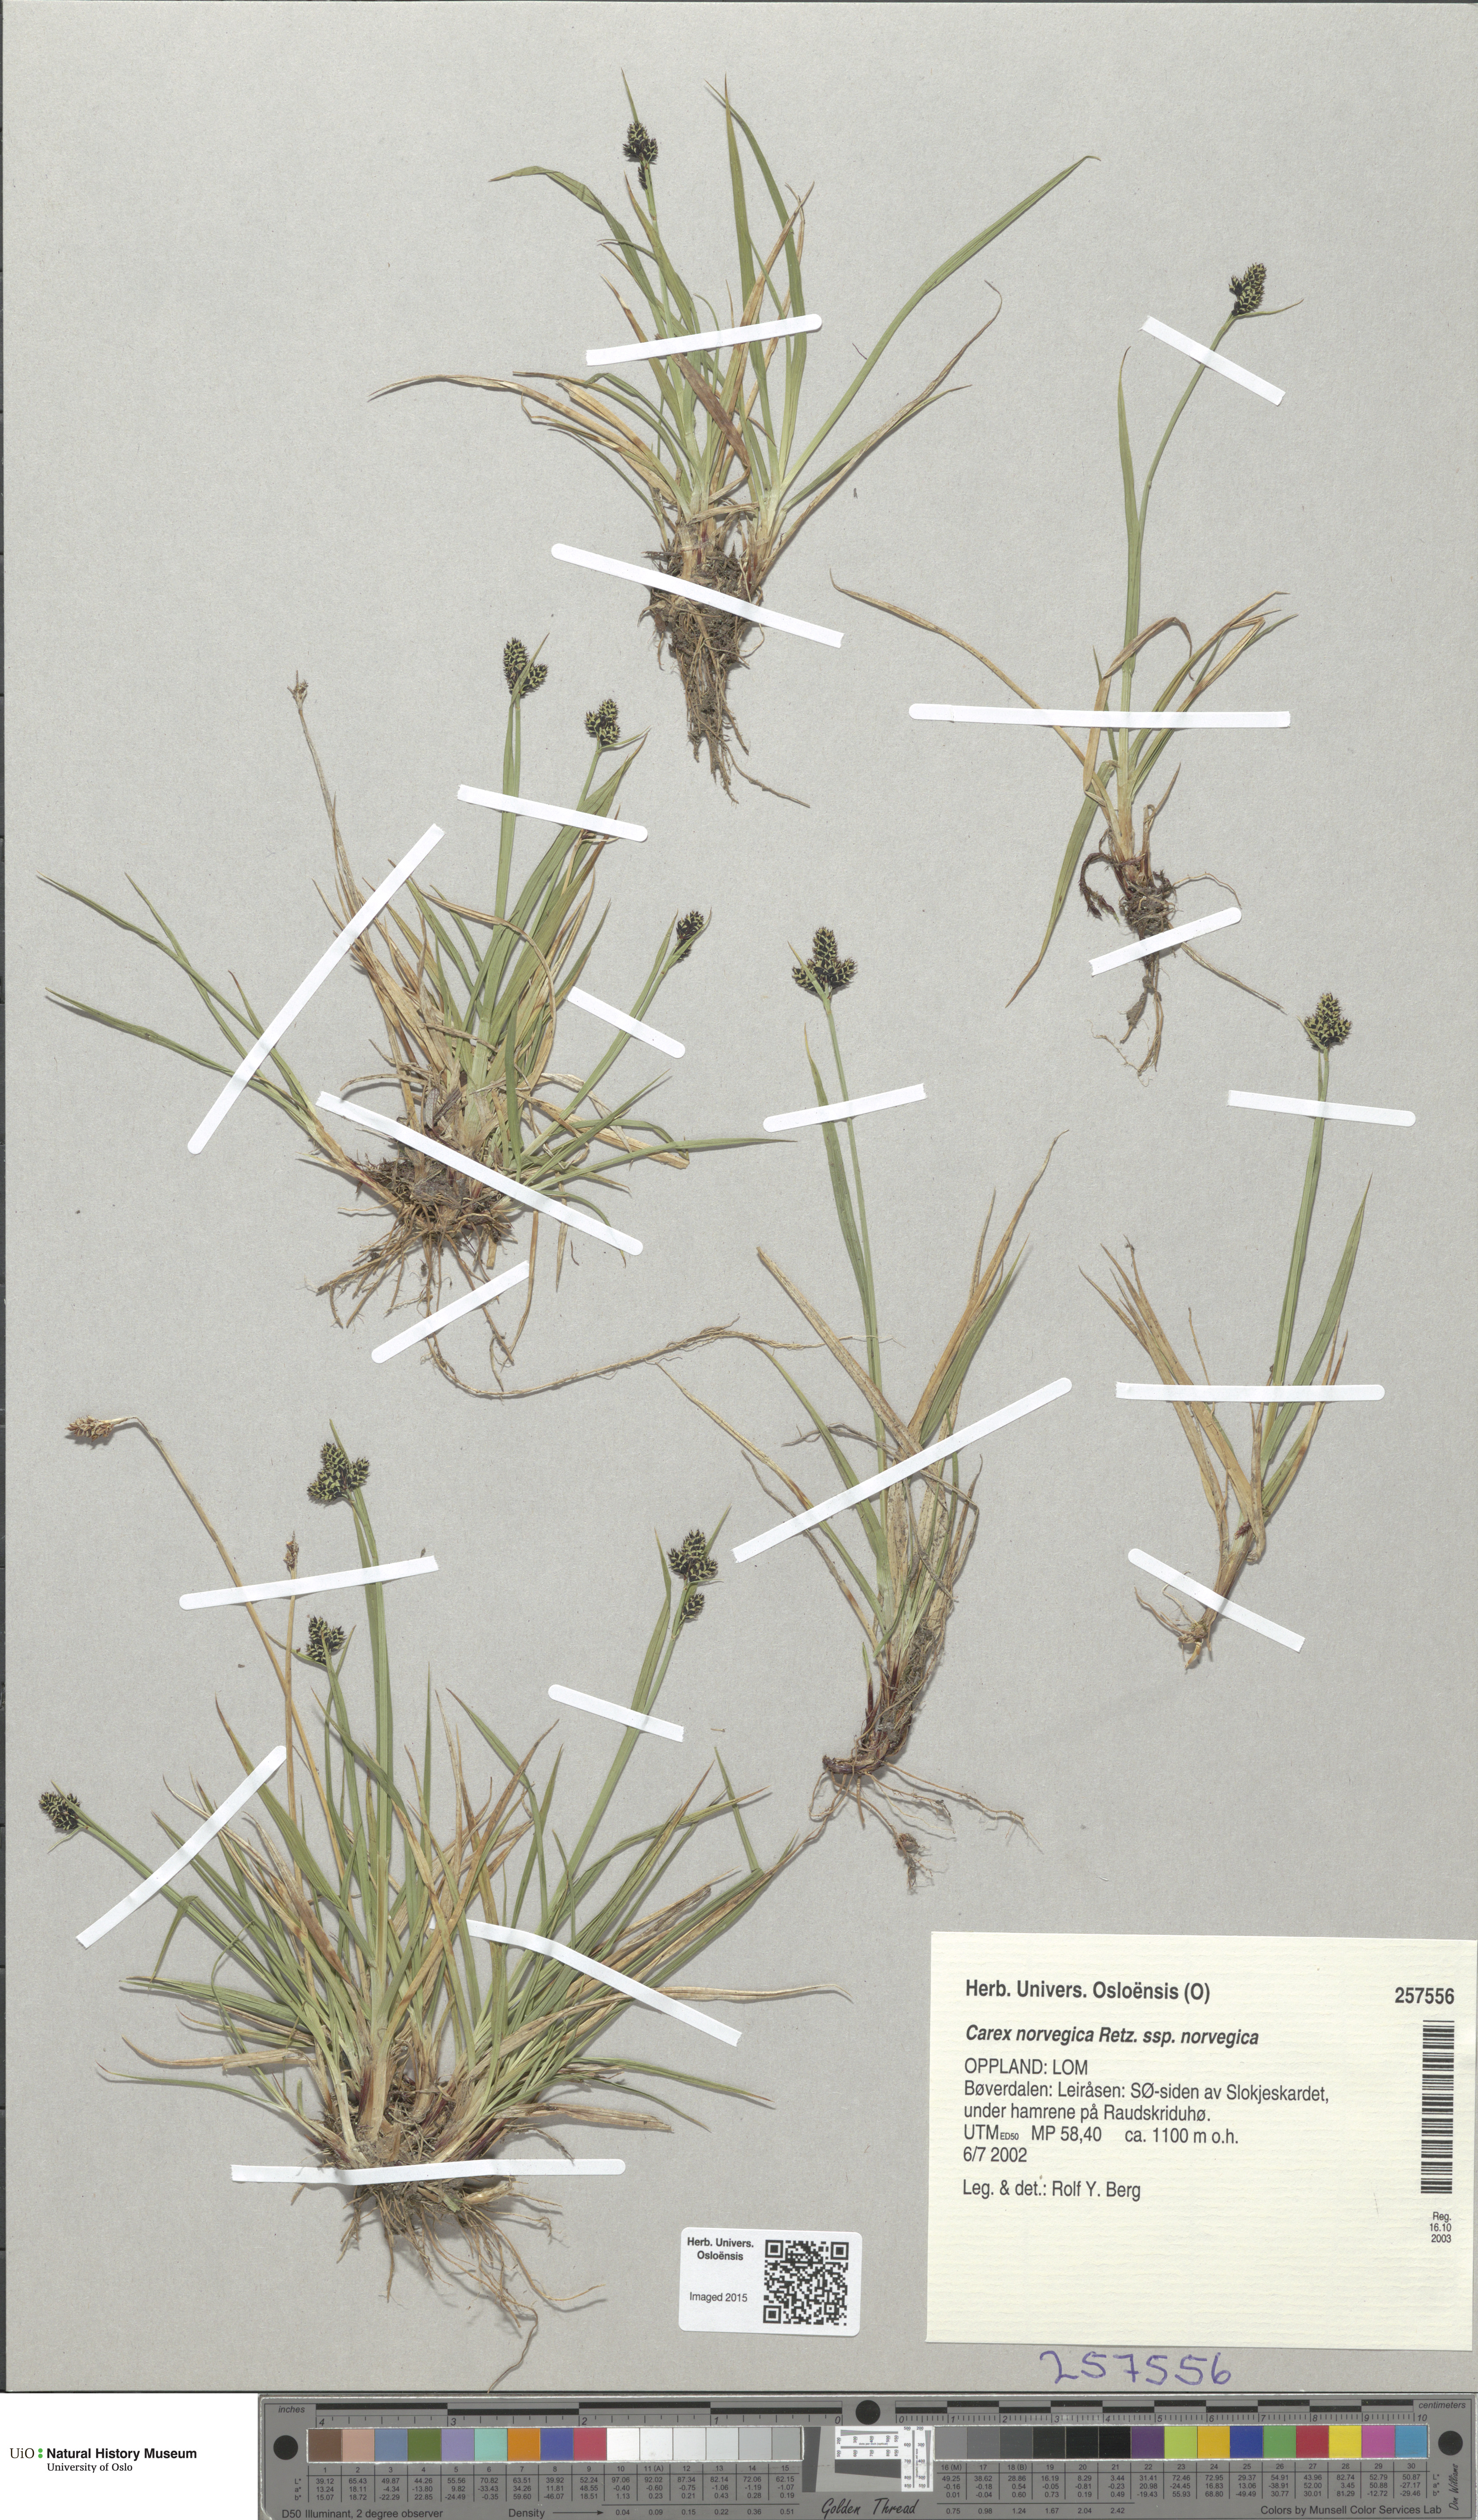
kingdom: Plantae
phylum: Tracheophyta
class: Liliopsida
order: Poales
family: Cyperaceae
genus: Carex
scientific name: Carex norvegica
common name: Close-headed alpine-sedge
